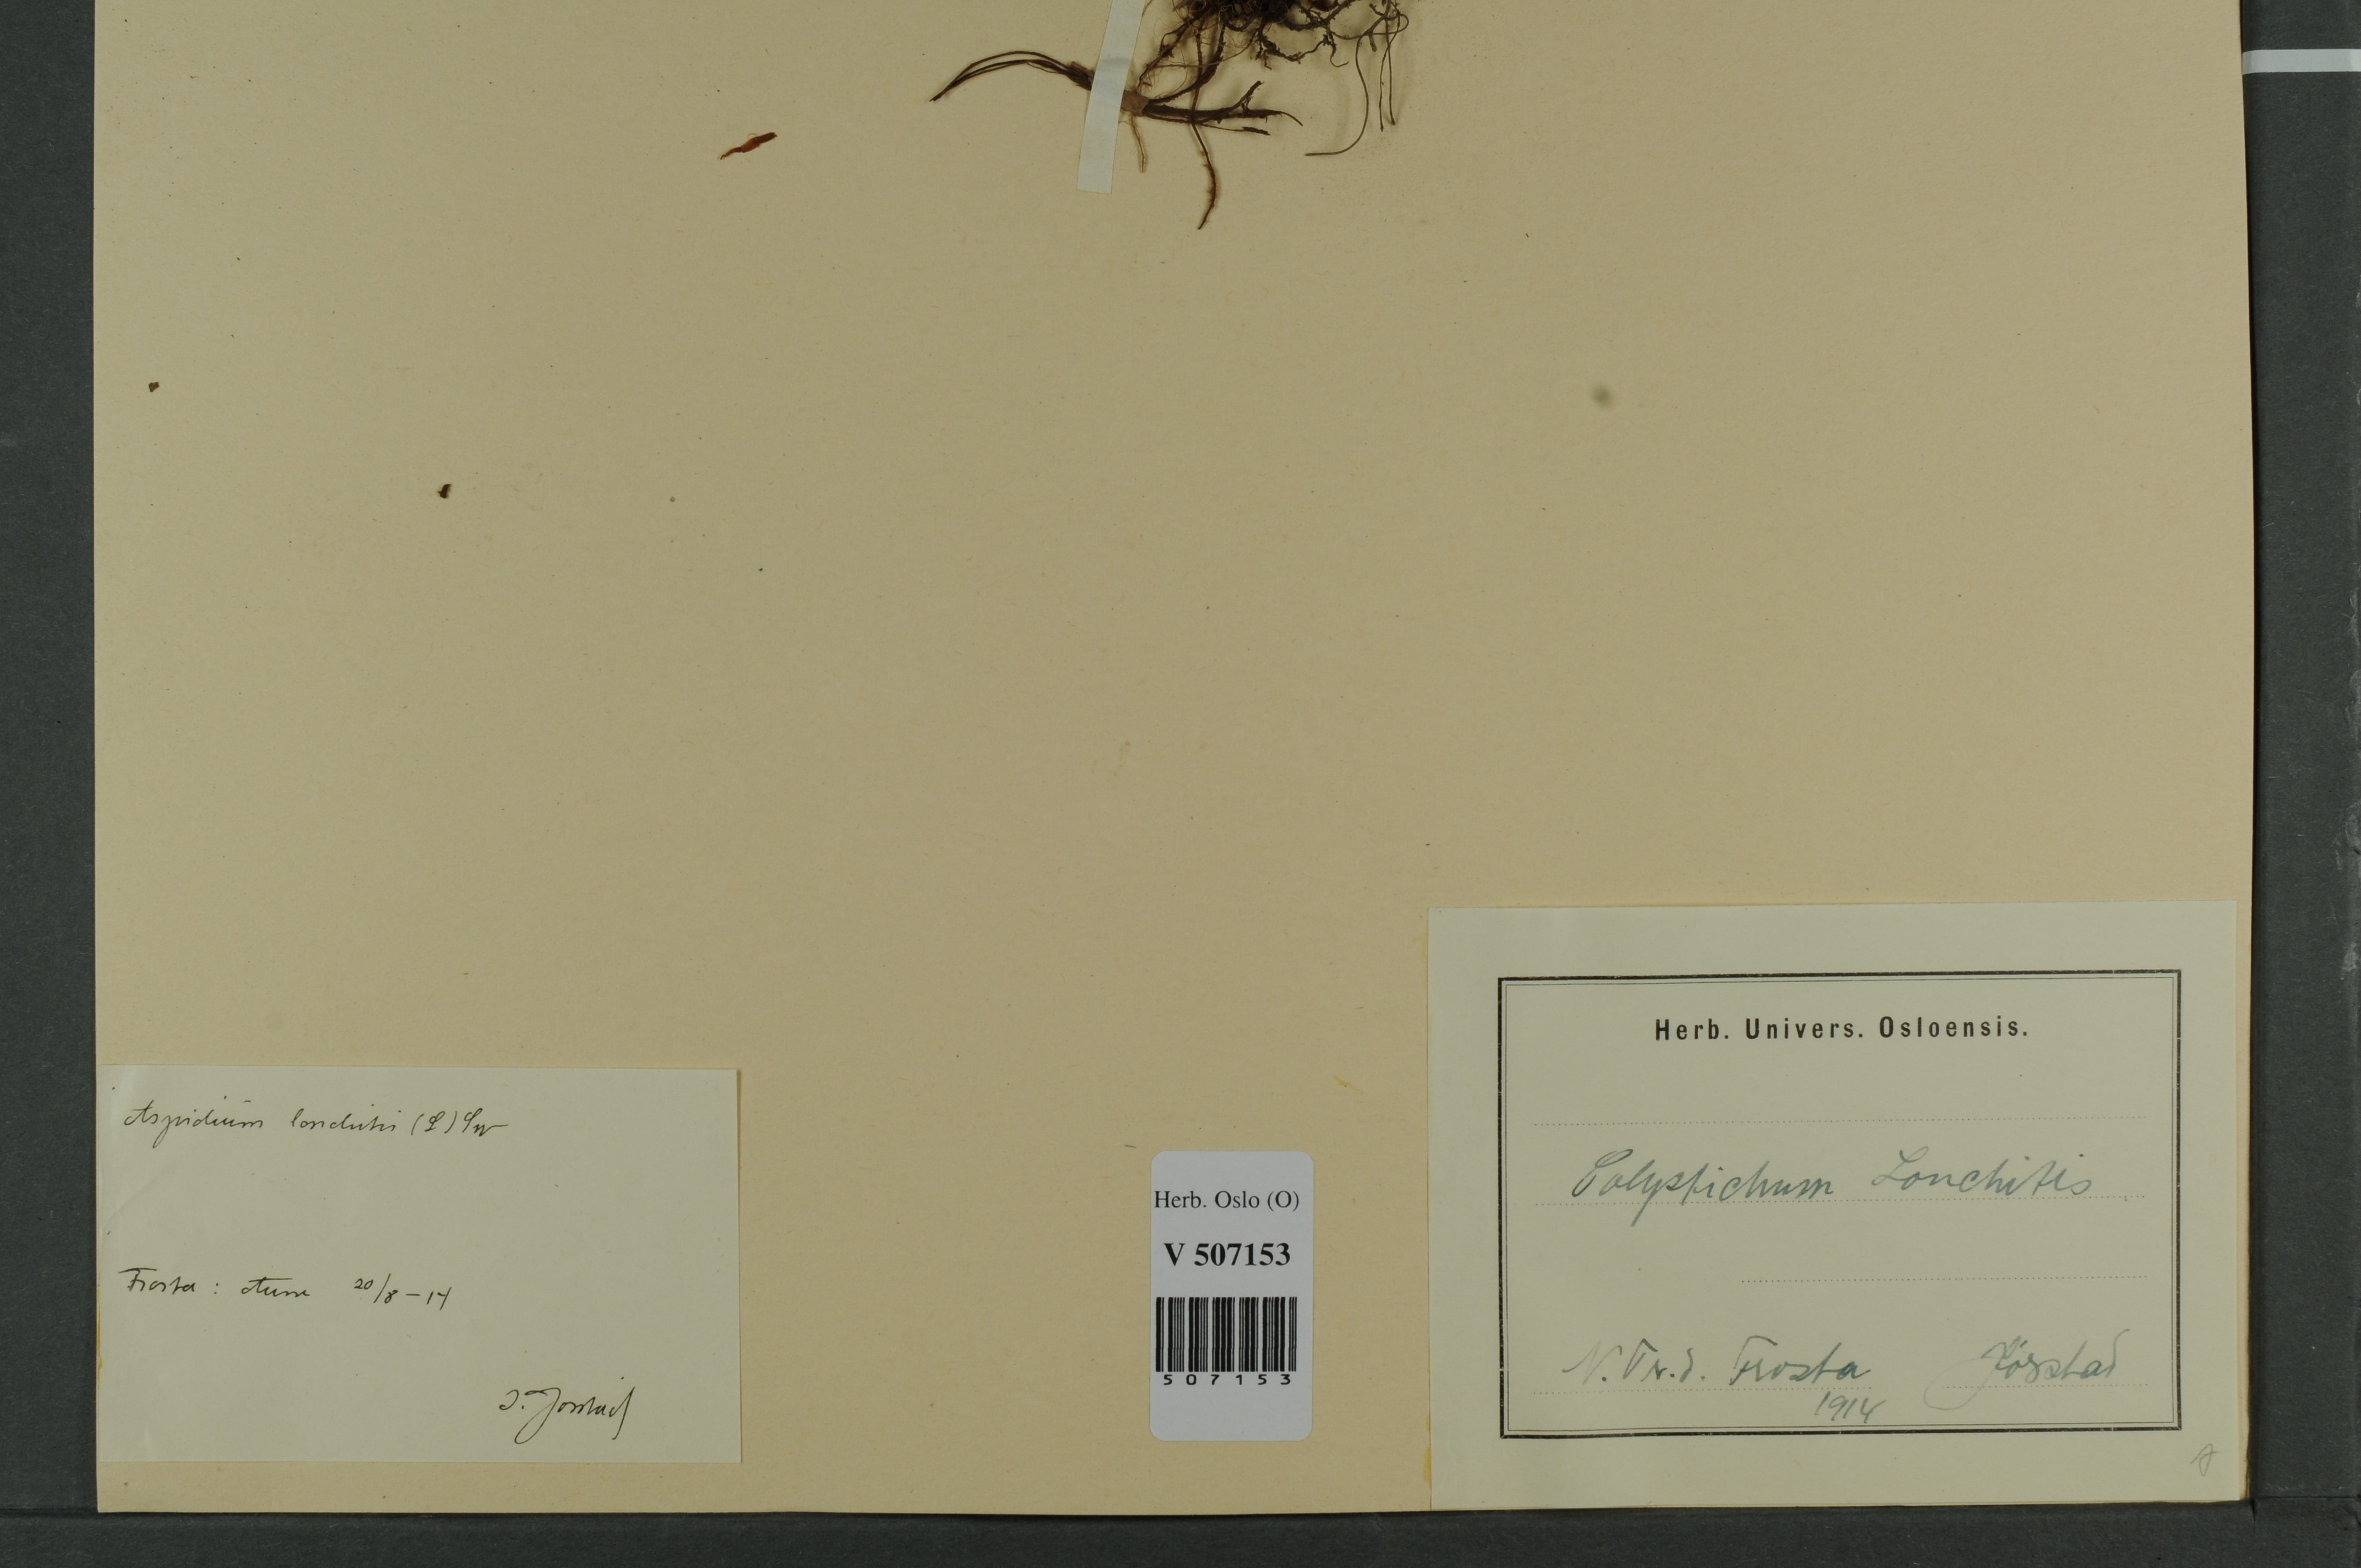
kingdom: Plantae
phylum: Tracheophyta
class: Polypodiopsida
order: Polypodiales
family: Dryopteridaceae
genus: Polystichum
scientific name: Polystichum lonchitis
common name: Holly fern
